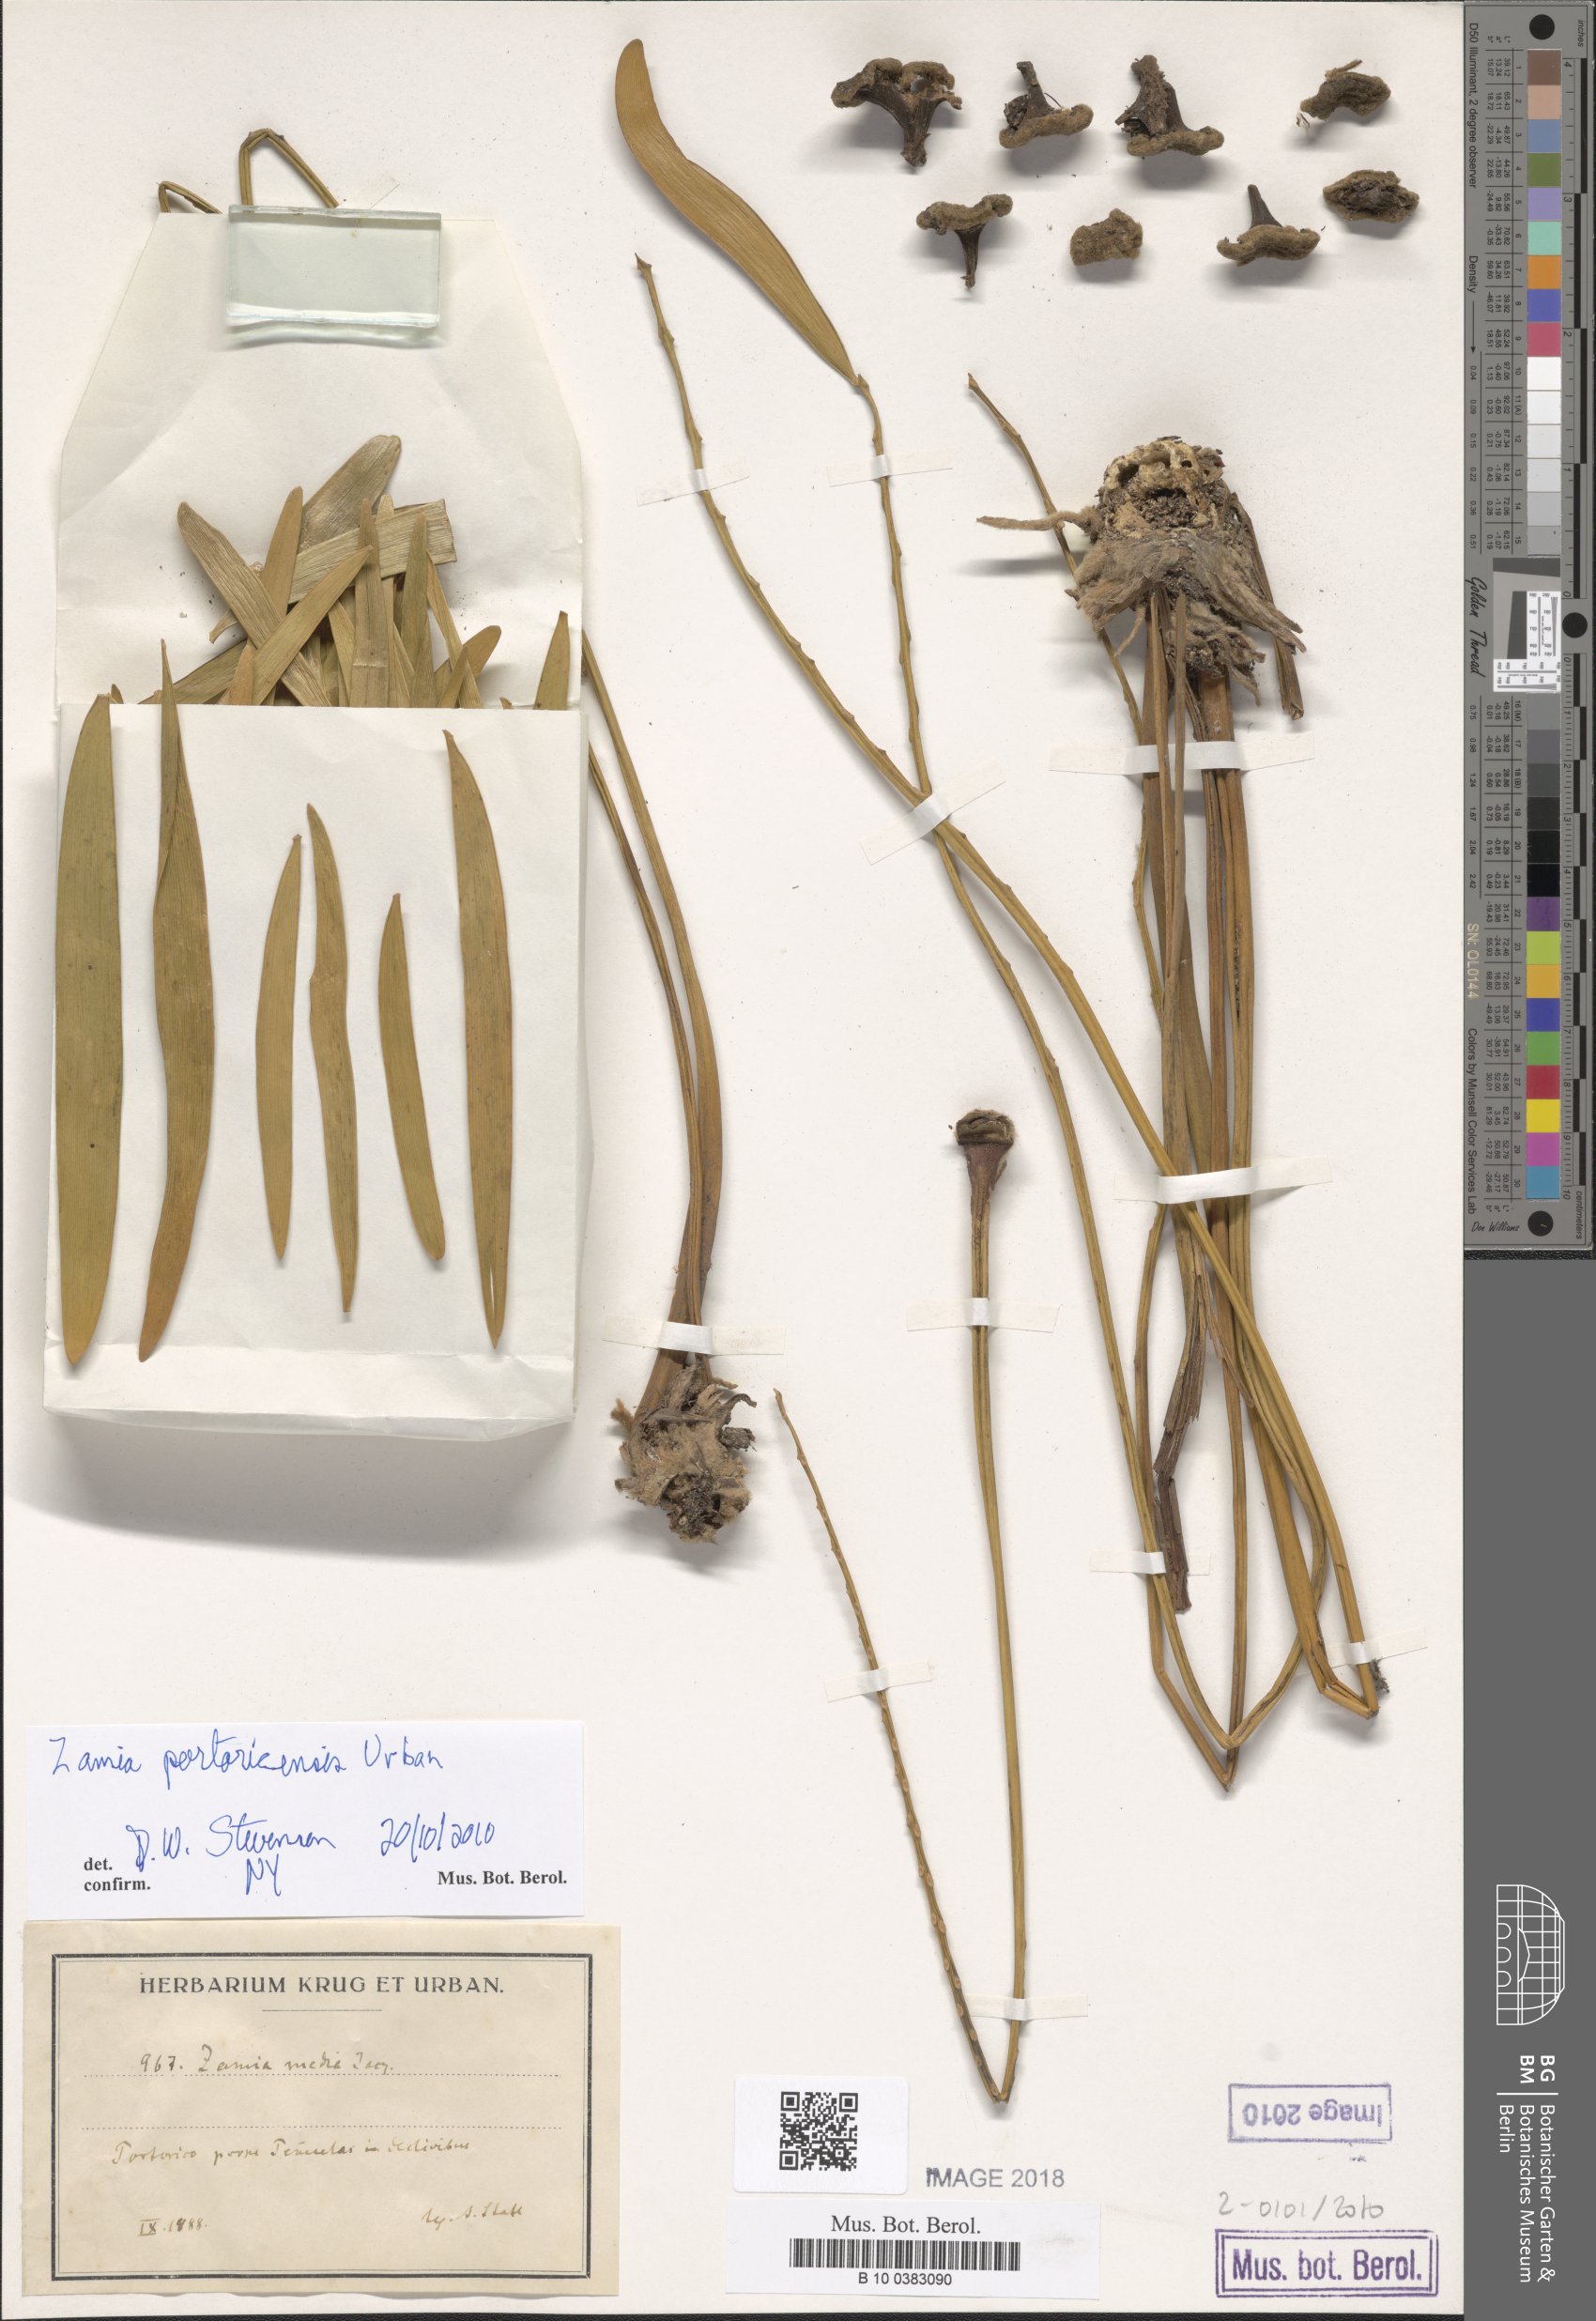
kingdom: Plantae
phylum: Tracheophyta
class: Cycadopsida
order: Cycadales
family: Zamiaceae
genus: Zamia
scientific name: Zamia integrifolia
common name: Florida arrowroot
